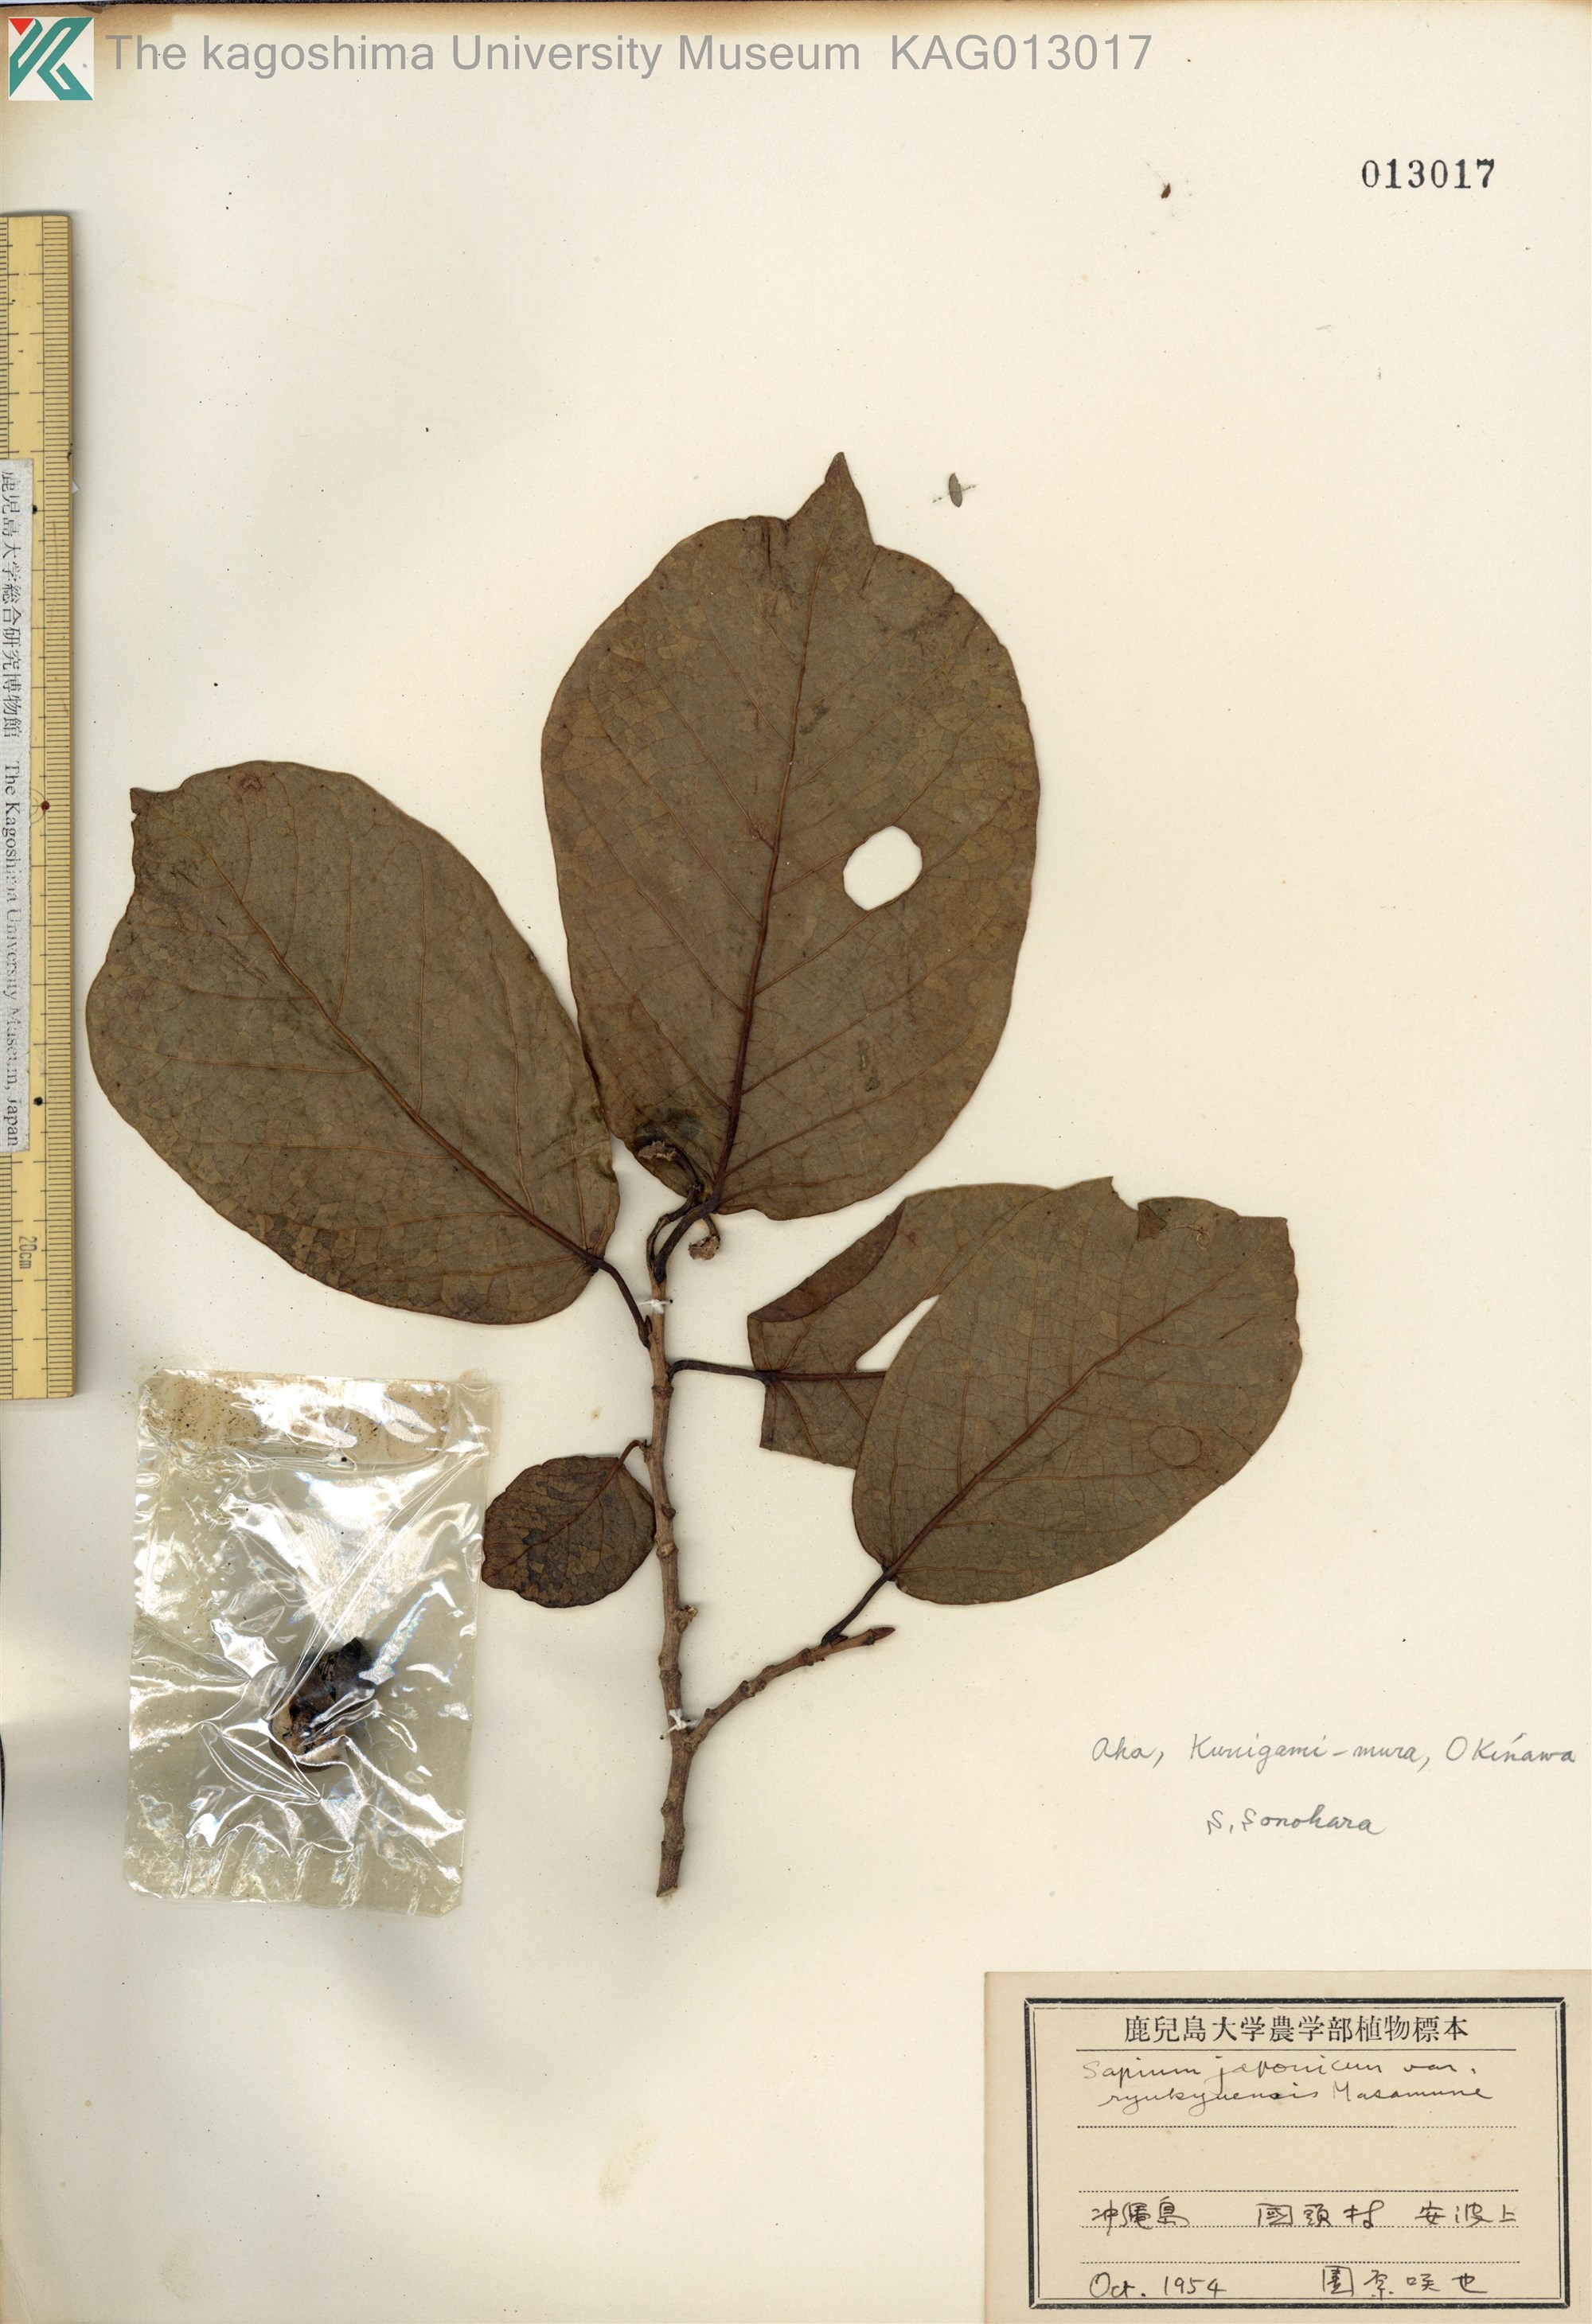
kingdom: Plantae
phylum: Tracheophyta
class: Magnoliopsida
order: Malpighiales
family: Euphorbiaceae
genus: Neoshirakia
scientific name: Neoshirakia japonica
